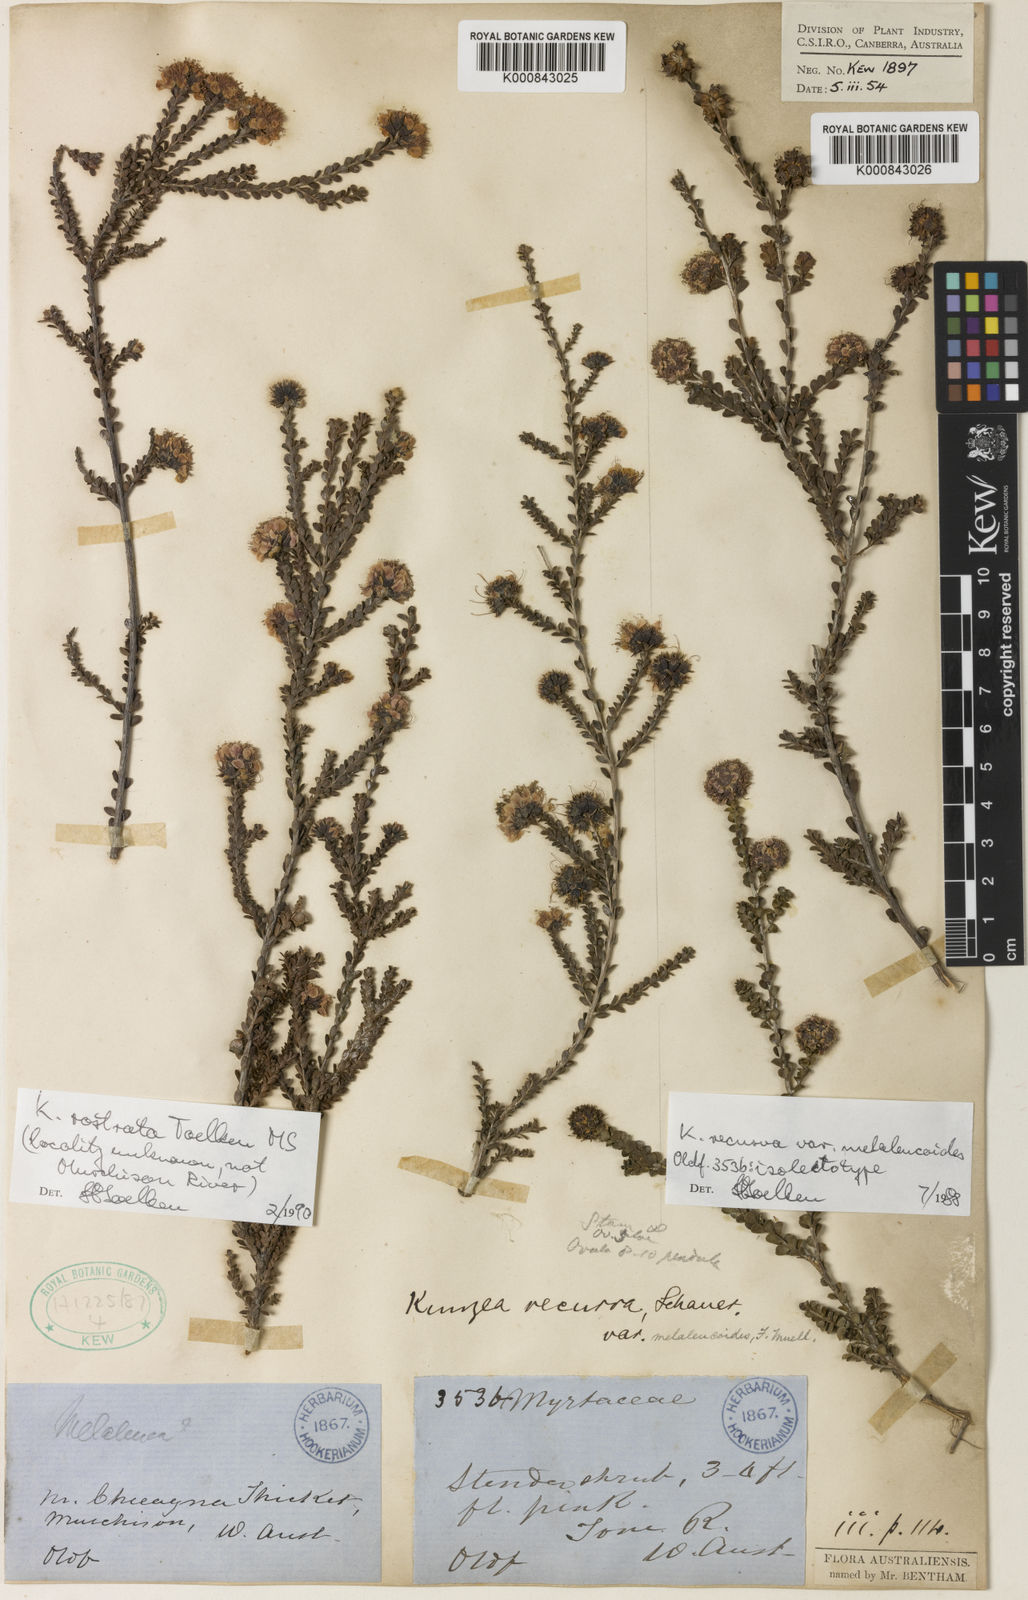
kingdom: Plantae
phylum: Tracheophyta
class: Magnoliopsida
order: Myrtales
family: Myrtaceae
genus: Kunzea
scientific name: Kunzea recurva
